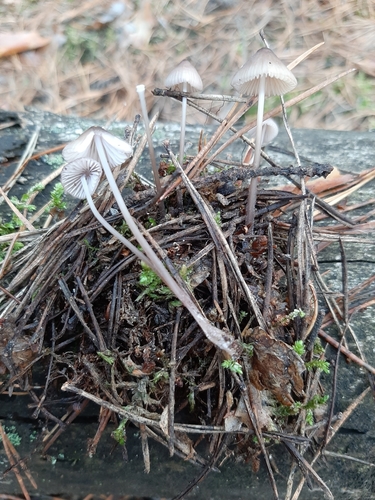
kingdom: Fungi
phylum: Basidiomycota
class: Agaricomycetes
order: Agaricales
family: Mycenaceae
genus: Mycena
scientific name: Mycena capillaripes
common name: Pinkedge bonnet
